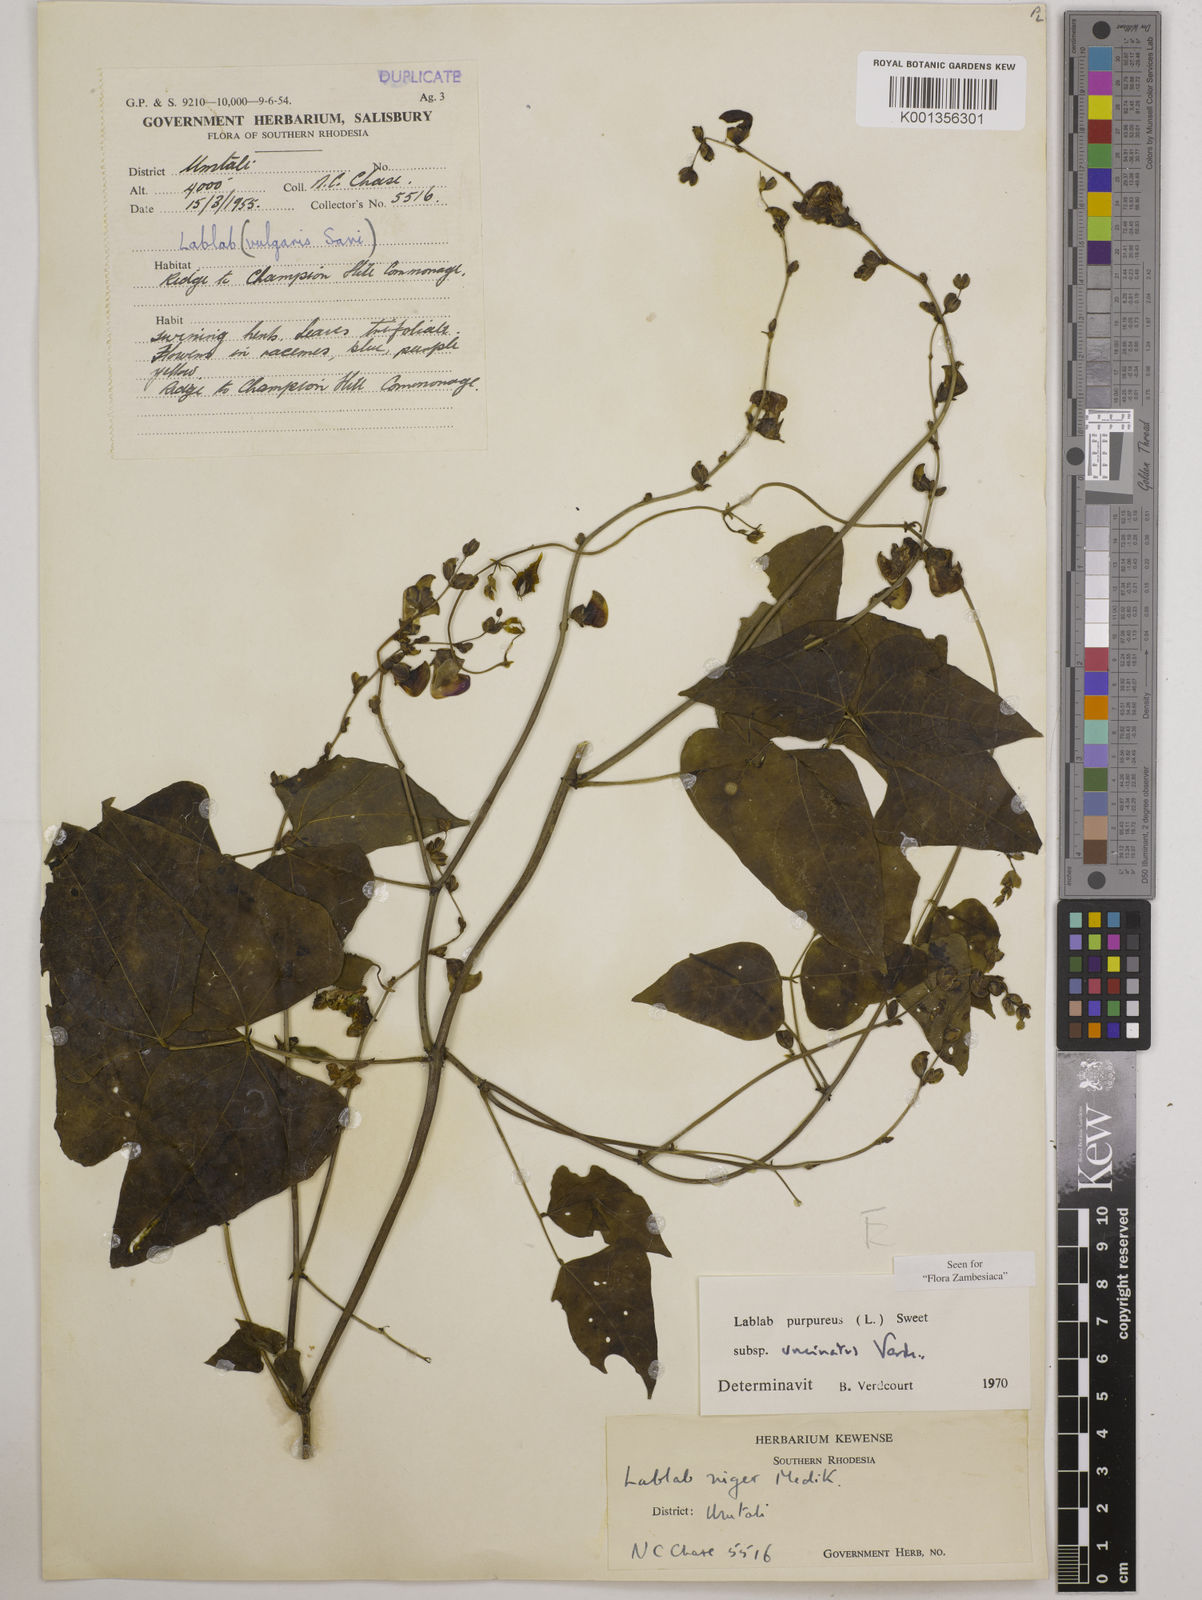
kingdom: Plantae
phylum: Tracheophyta
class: Magnoliopsida
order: Fabales
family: Fabaceae
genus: Lablab
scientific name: Lablab purpureus
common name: Lablab-bean
